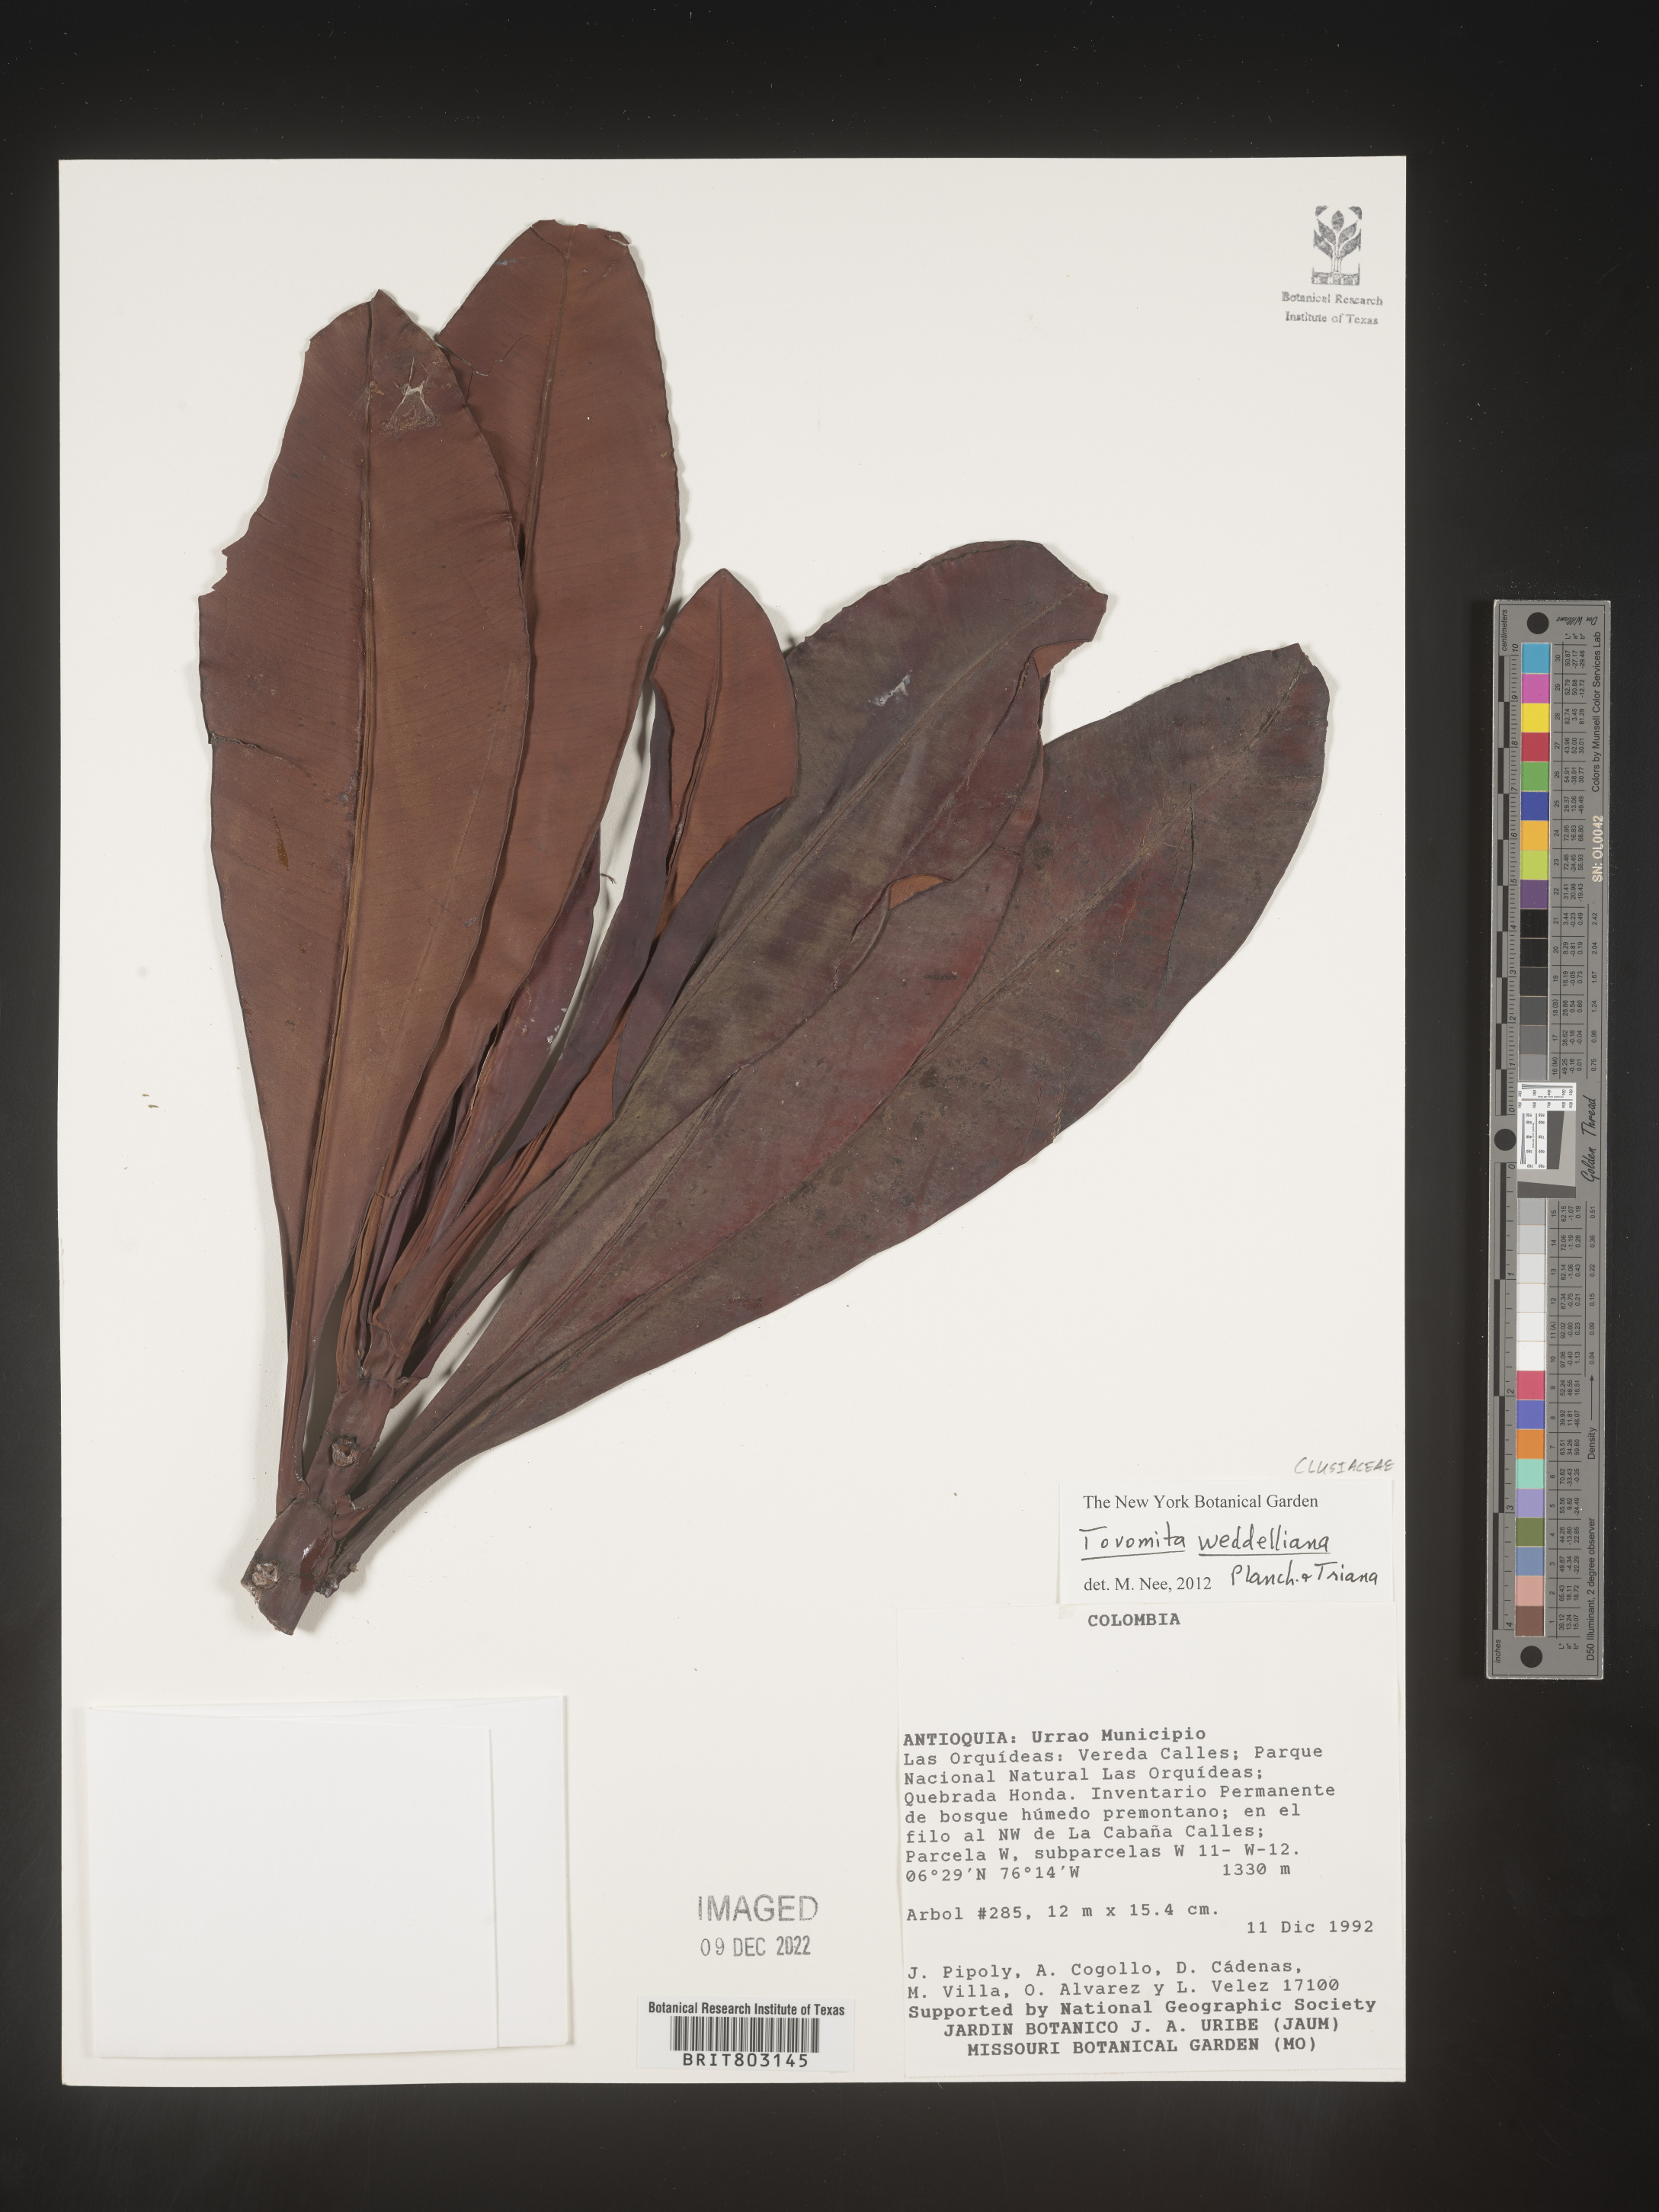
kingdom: Plantae
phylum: Tracheophyta
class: Magnoliopsida
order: Malpighiales
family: Clusiaceae
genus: Arawakia
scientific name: Arawakia weddelliana
